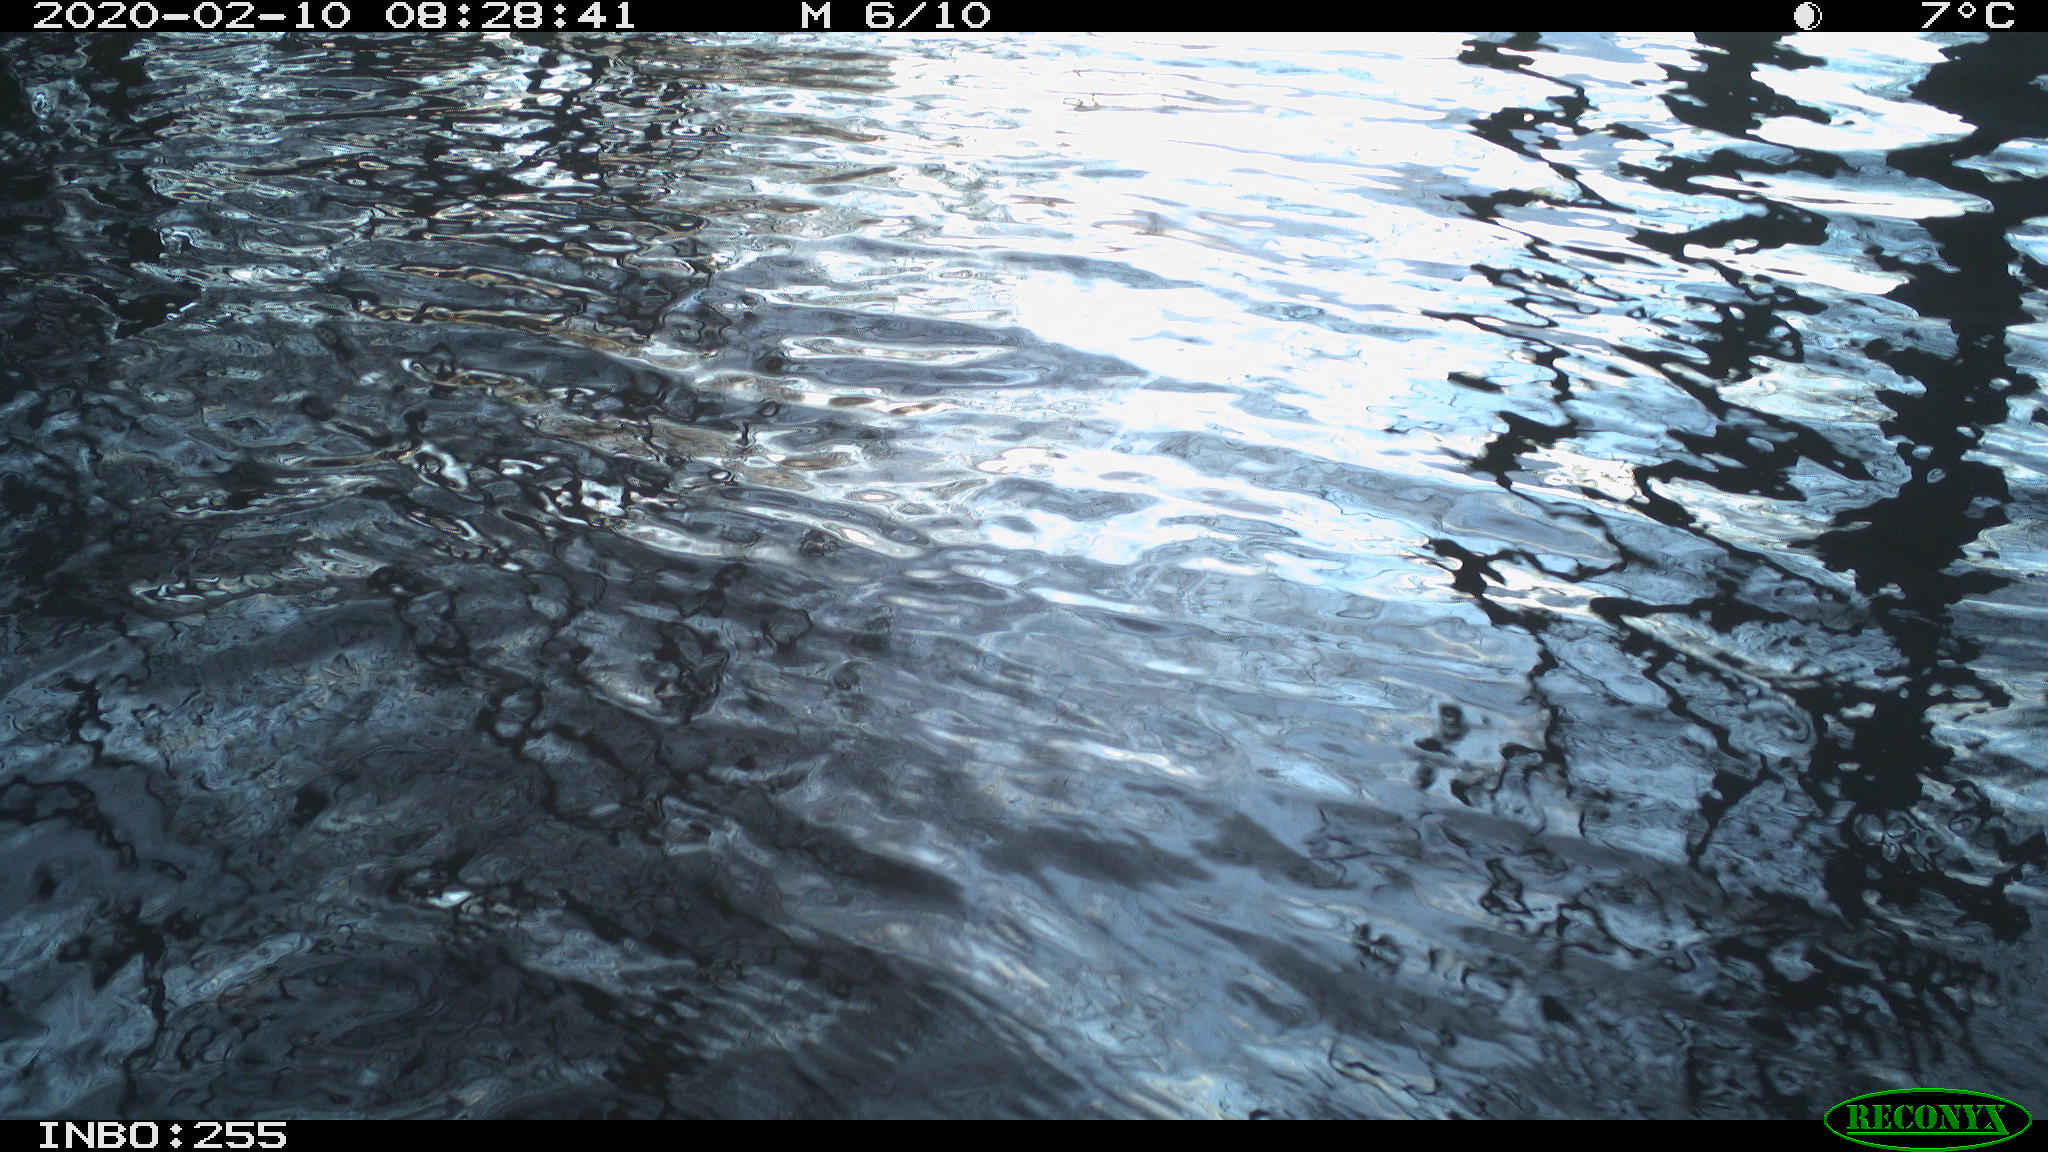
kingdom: Animalia
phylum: Chordata
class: Aves
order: Gruiformes
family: Rallidae
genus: Fulica
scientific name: Fulica atra
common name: Eurasian coot
